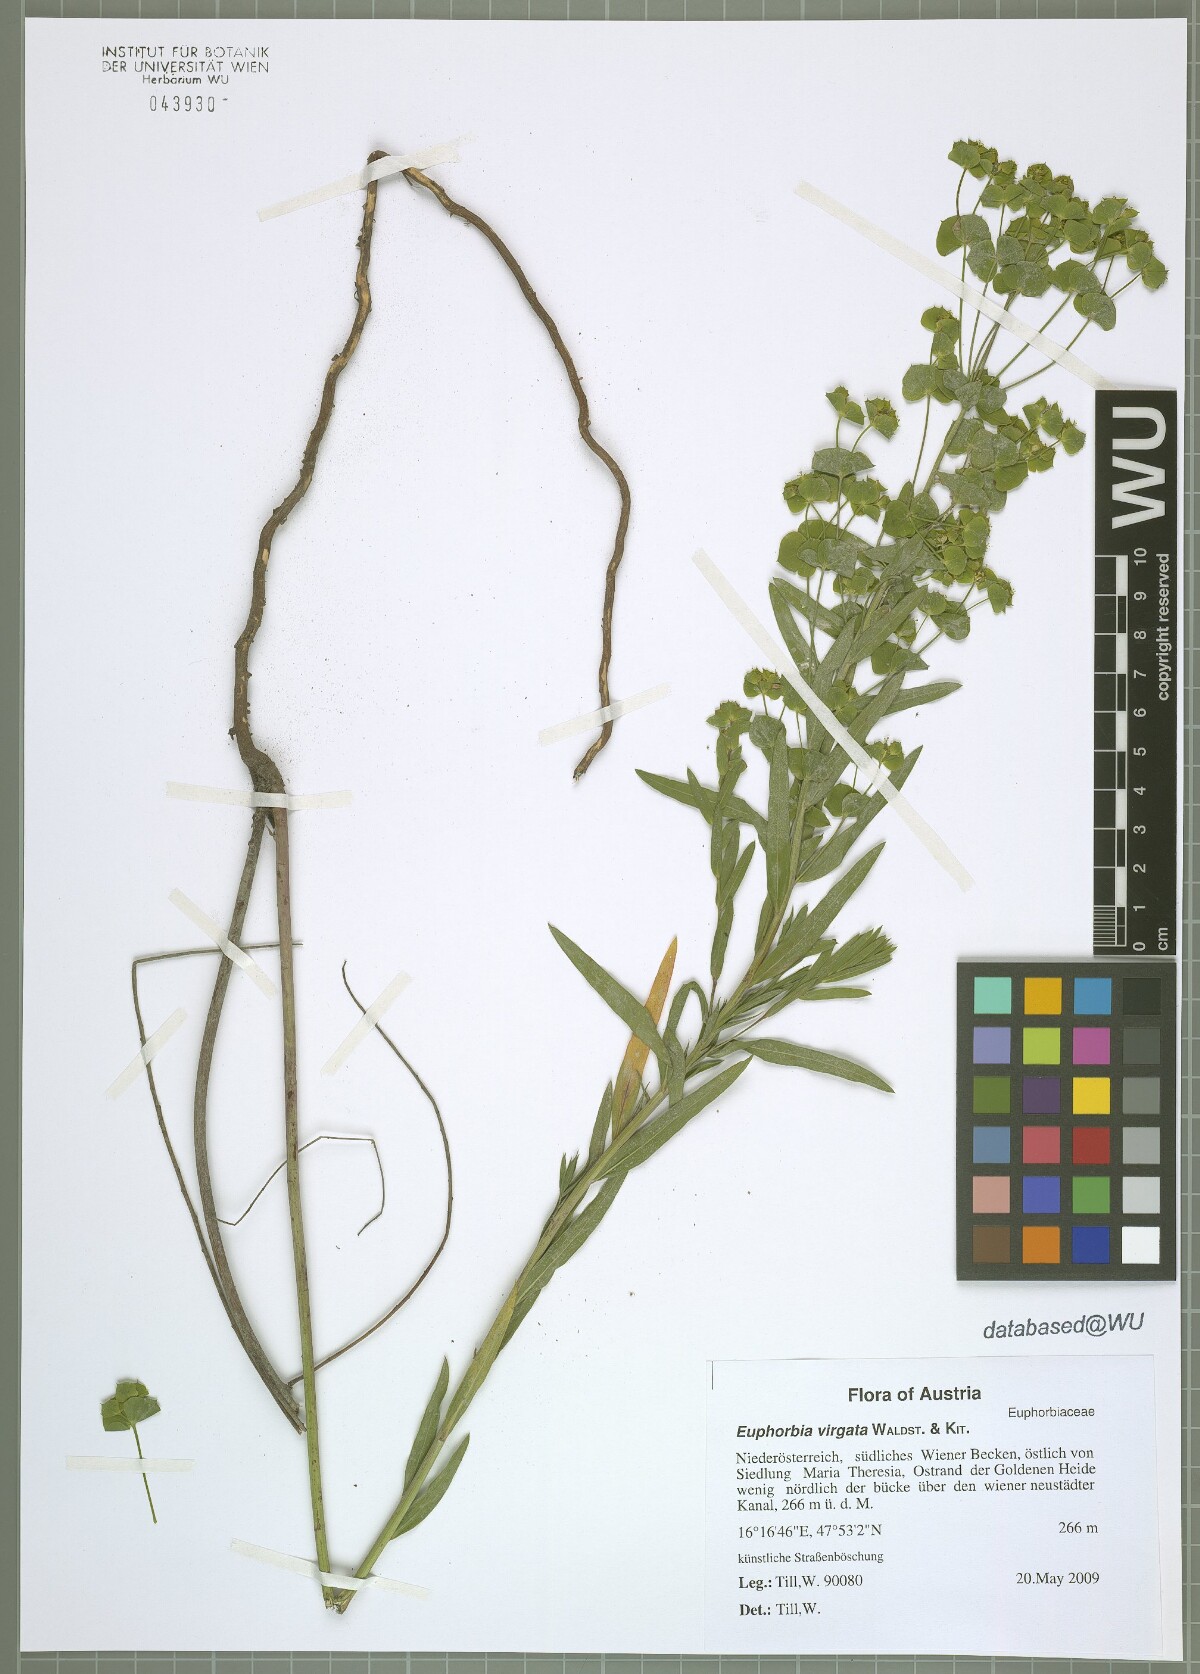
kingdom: Plantae
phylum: Tracheophyta
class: Magnoliopsida
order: Malpighiales
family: Euphorbiaceae
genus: Euphorbia
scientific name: Euphorbia virgata
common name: Leafy spurge
